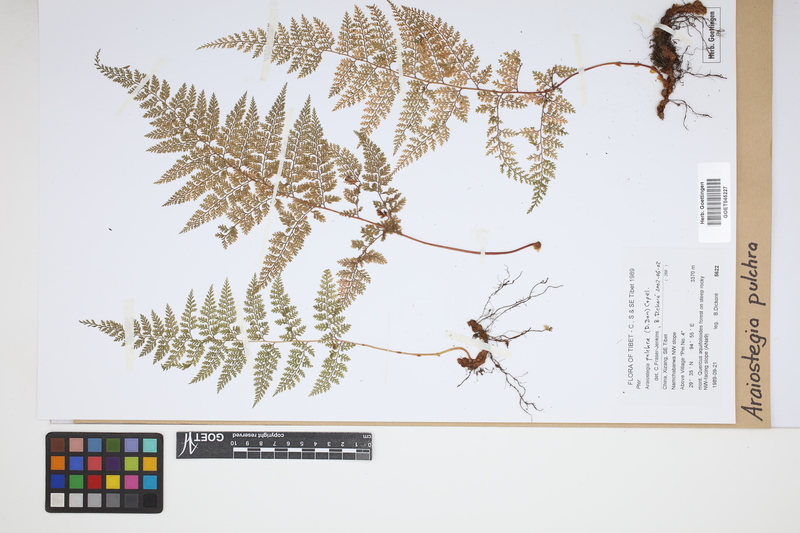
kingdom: Plantae
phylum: Tracheophyta
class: Polypodiopsida
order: Polypodiales
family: Davalliaceae
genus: Davallodes
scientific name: Davallodes pulchra
